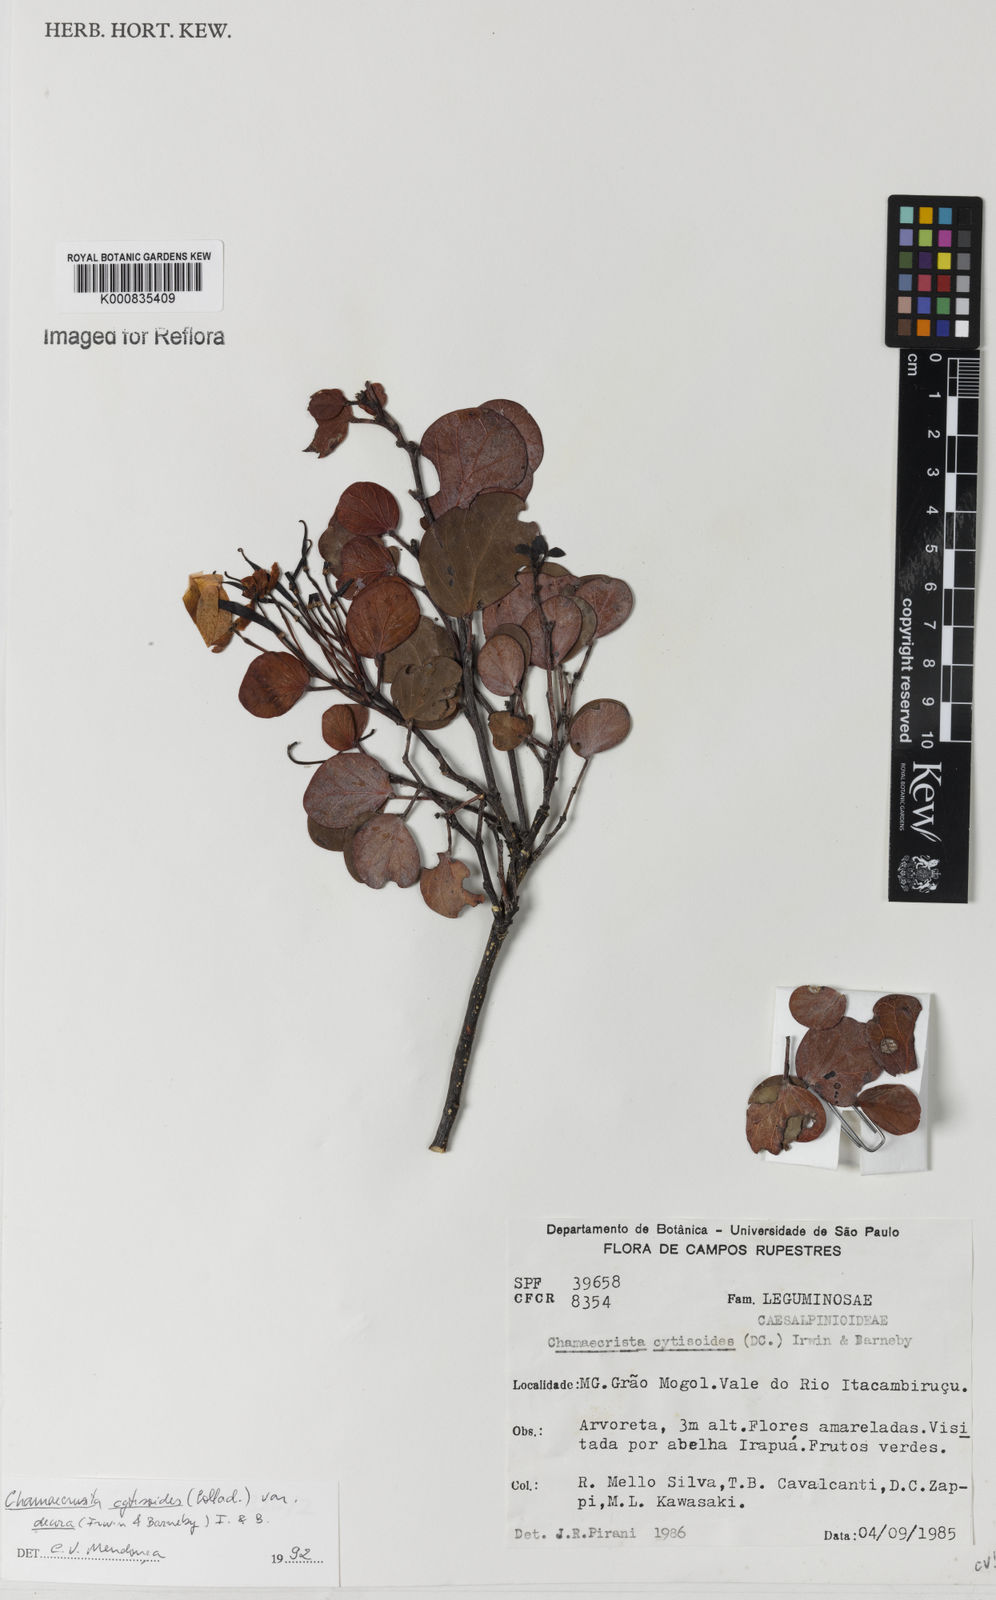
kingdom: Plantae
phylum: Tracheophyta
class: Magnoliopsida
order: Fabales
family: Fabaceae
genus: Chamaecrista
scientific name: Chamaecrista decora
